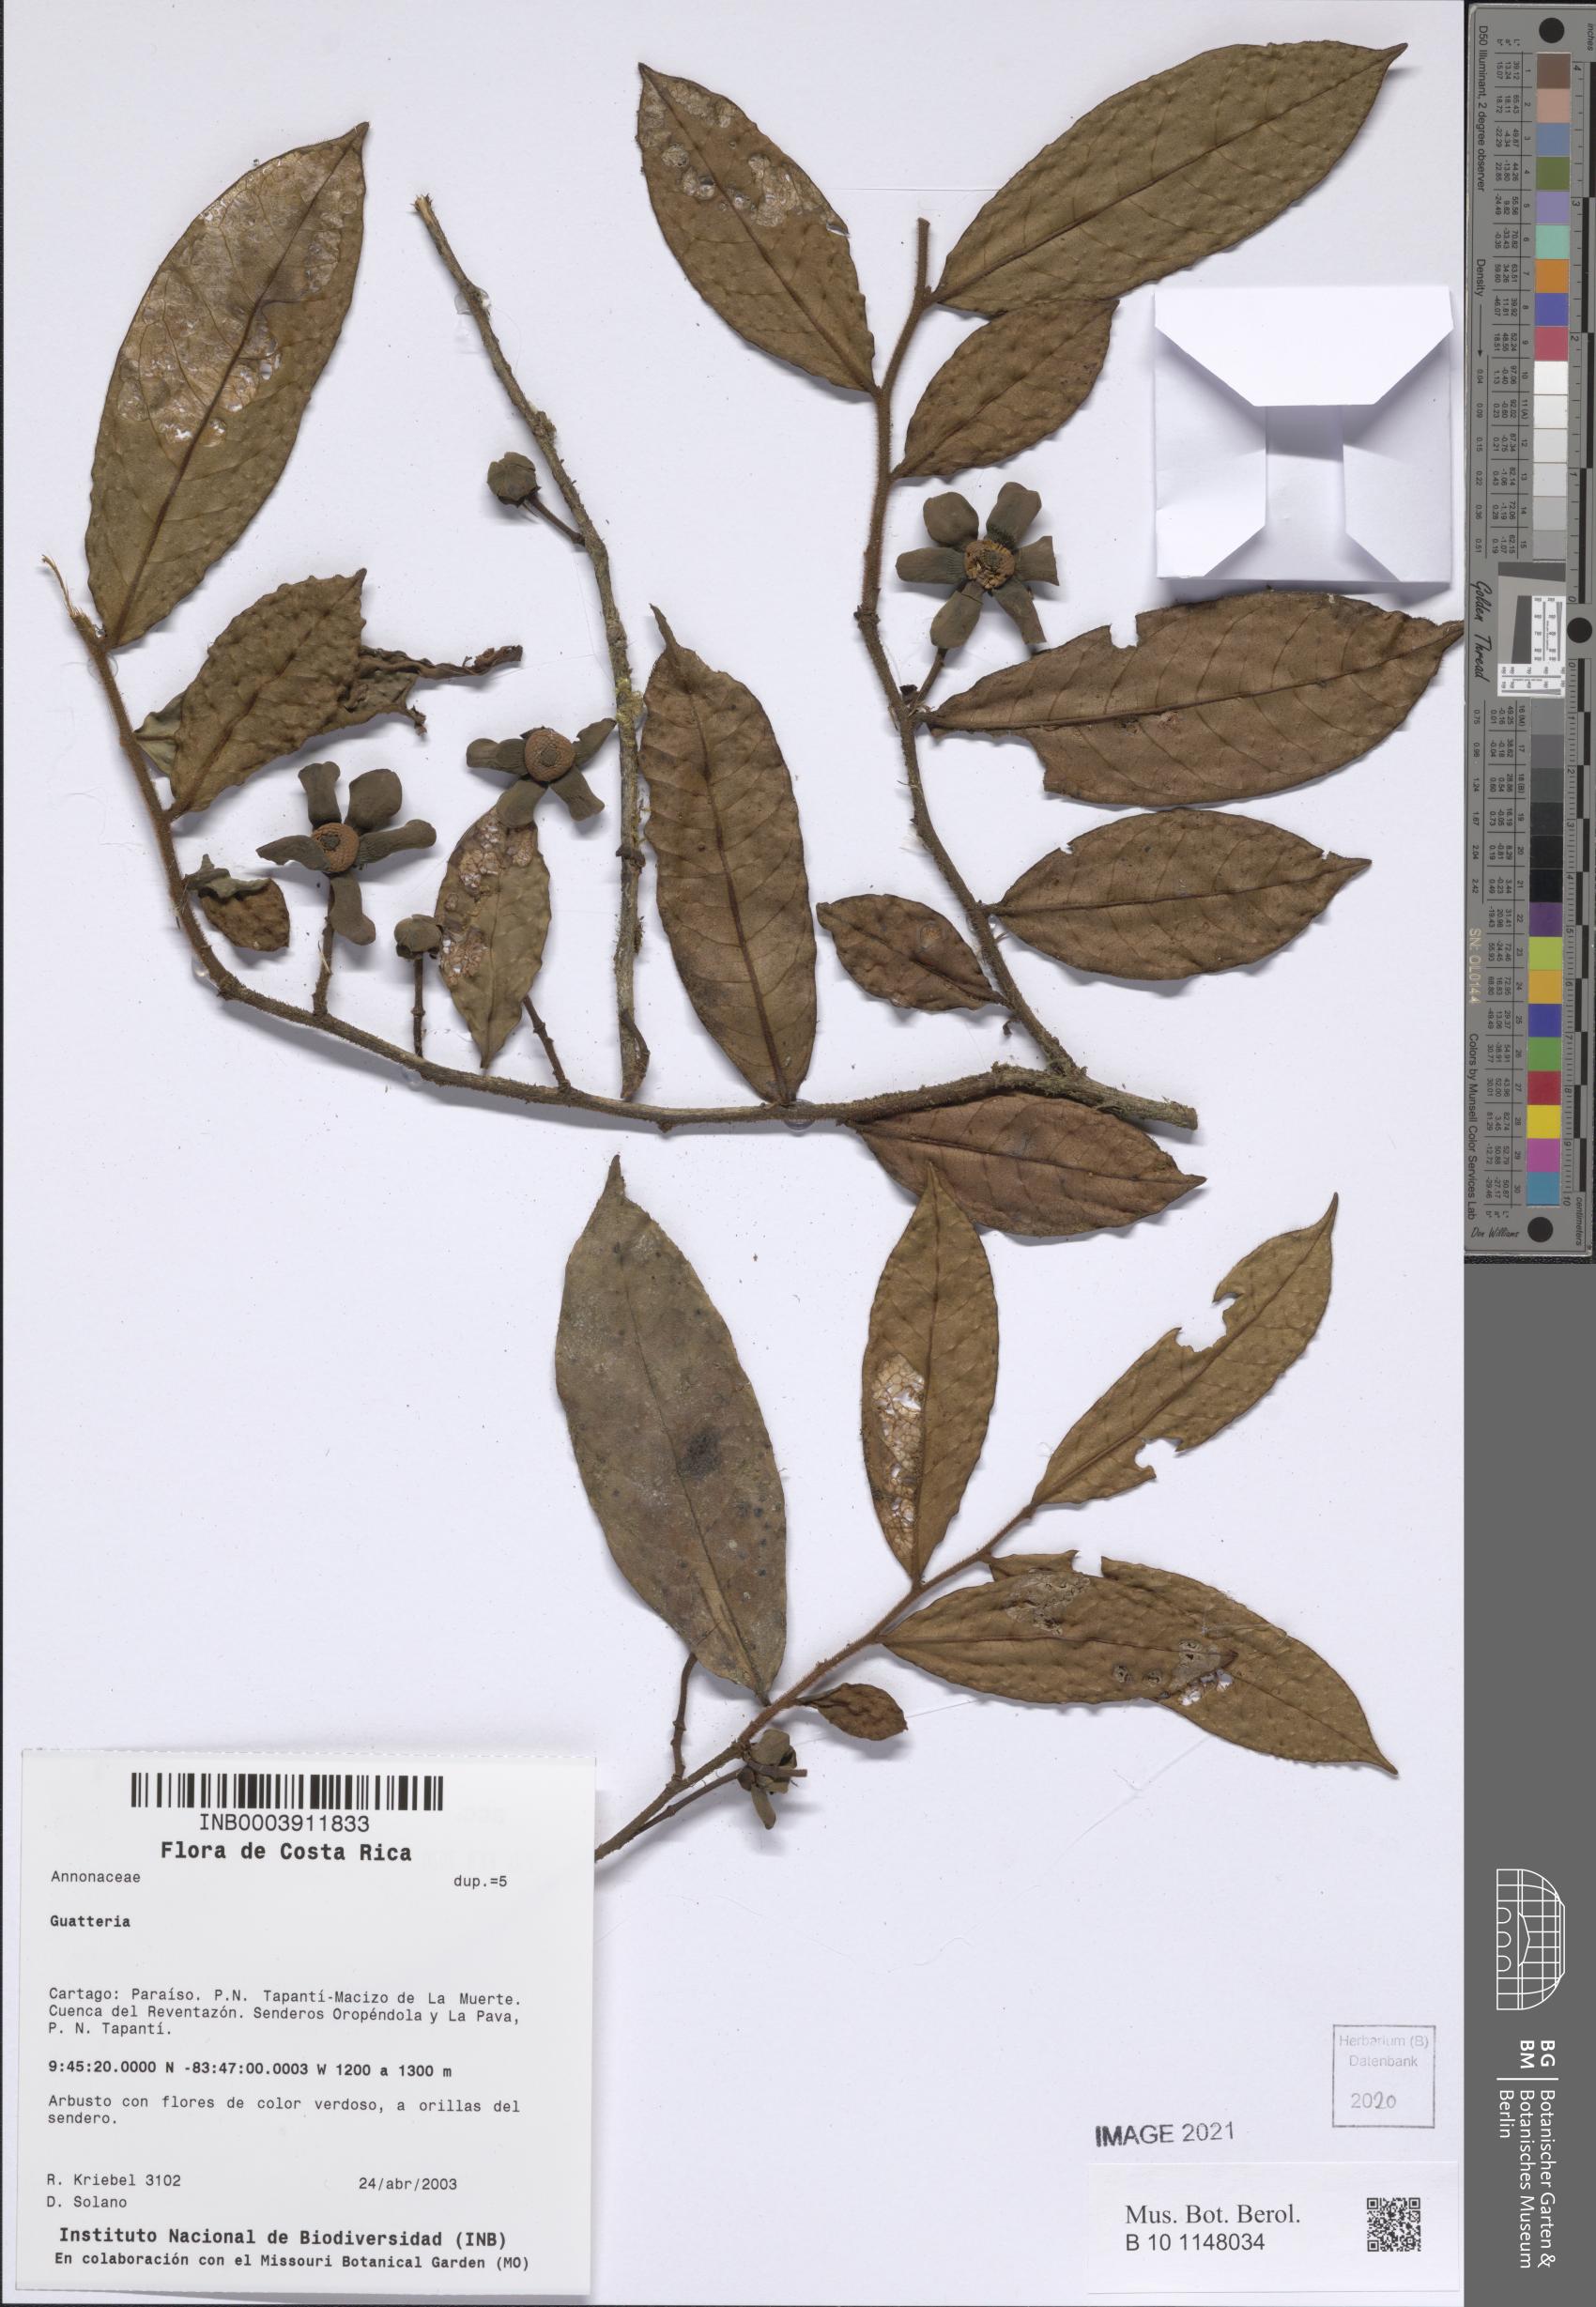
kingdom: Plantae
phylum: Tracheophyta
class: Magnoliopsida
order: Magnoliales
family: Annonaceae
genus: Guatteria
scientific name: Guatteria
